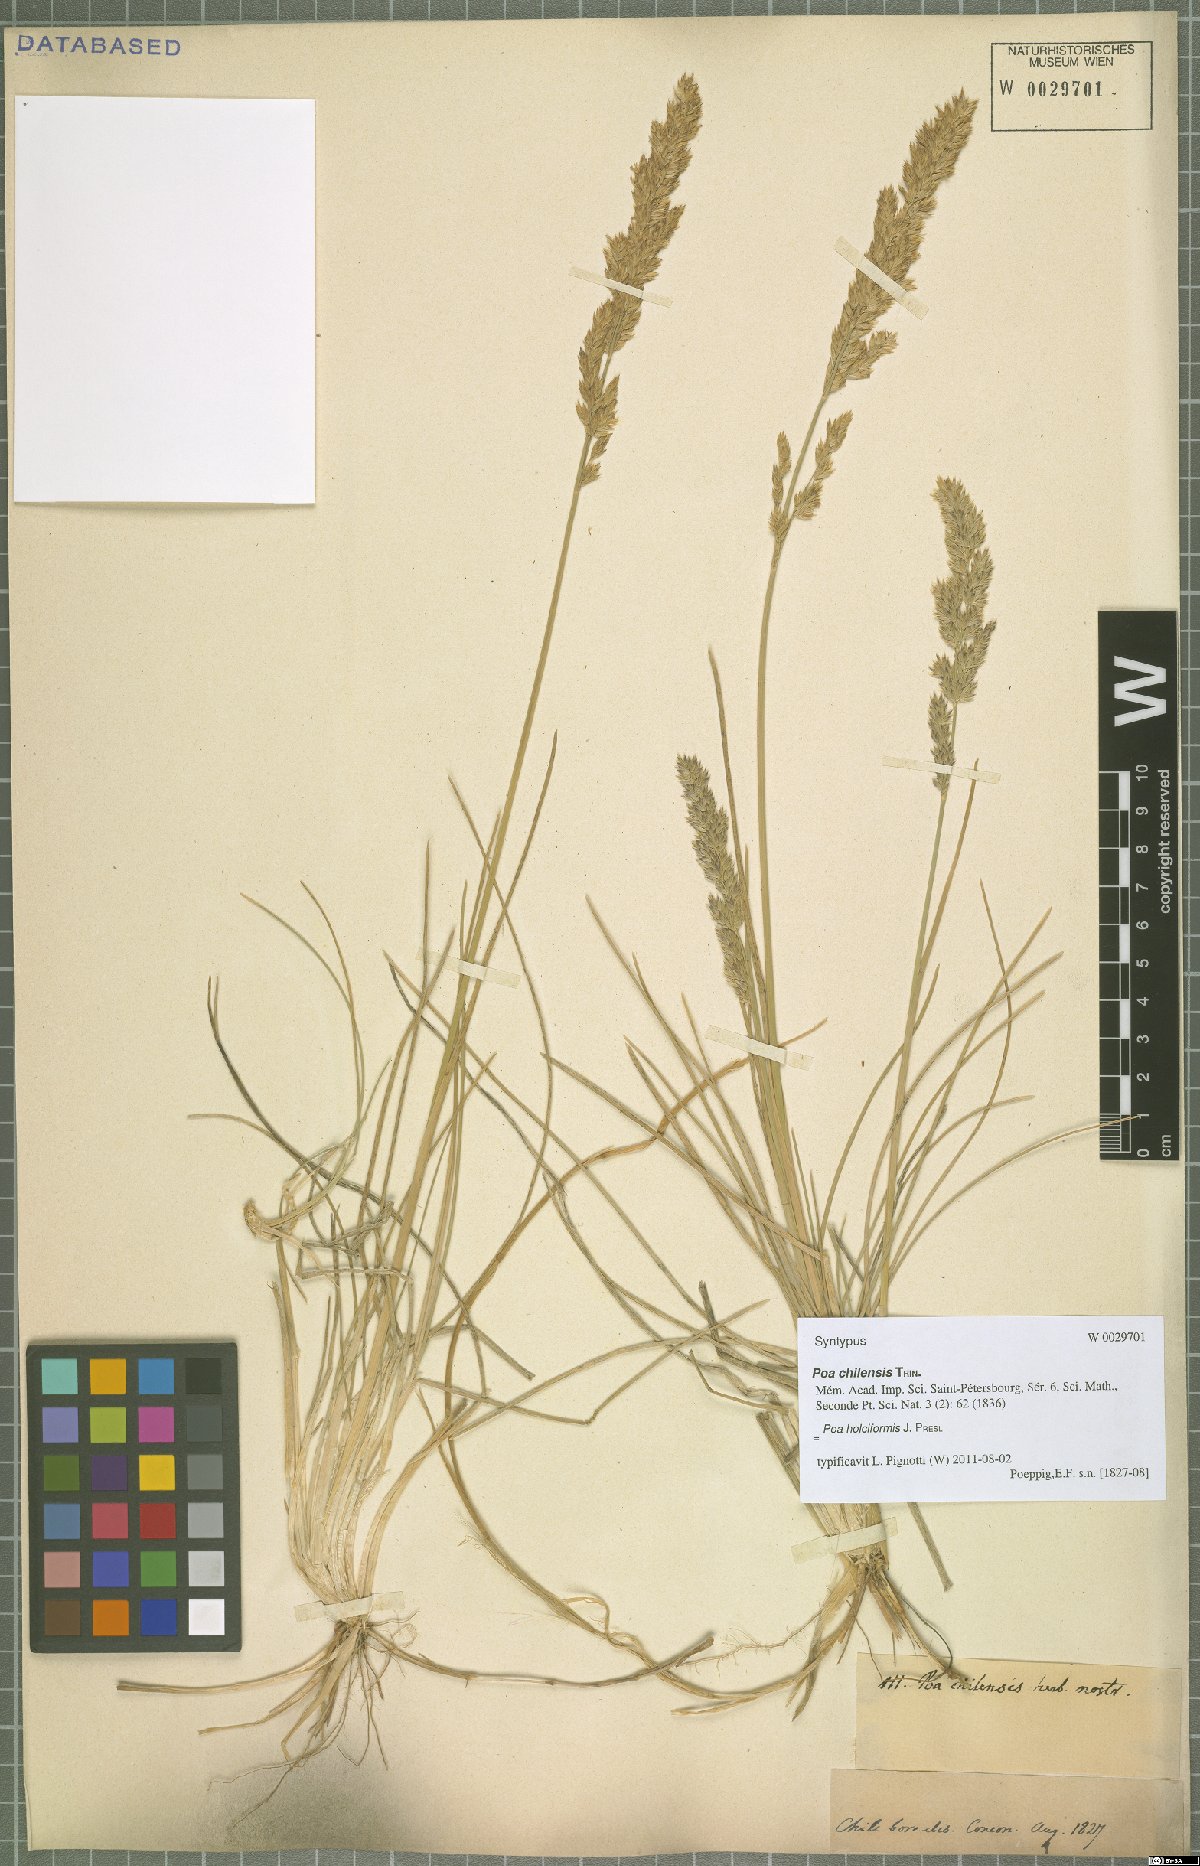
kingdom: Plantae
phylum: Tracheophyta
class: Liliopsida
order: Poales
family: Poaceae
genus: Poa
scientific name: Poa holciformis
